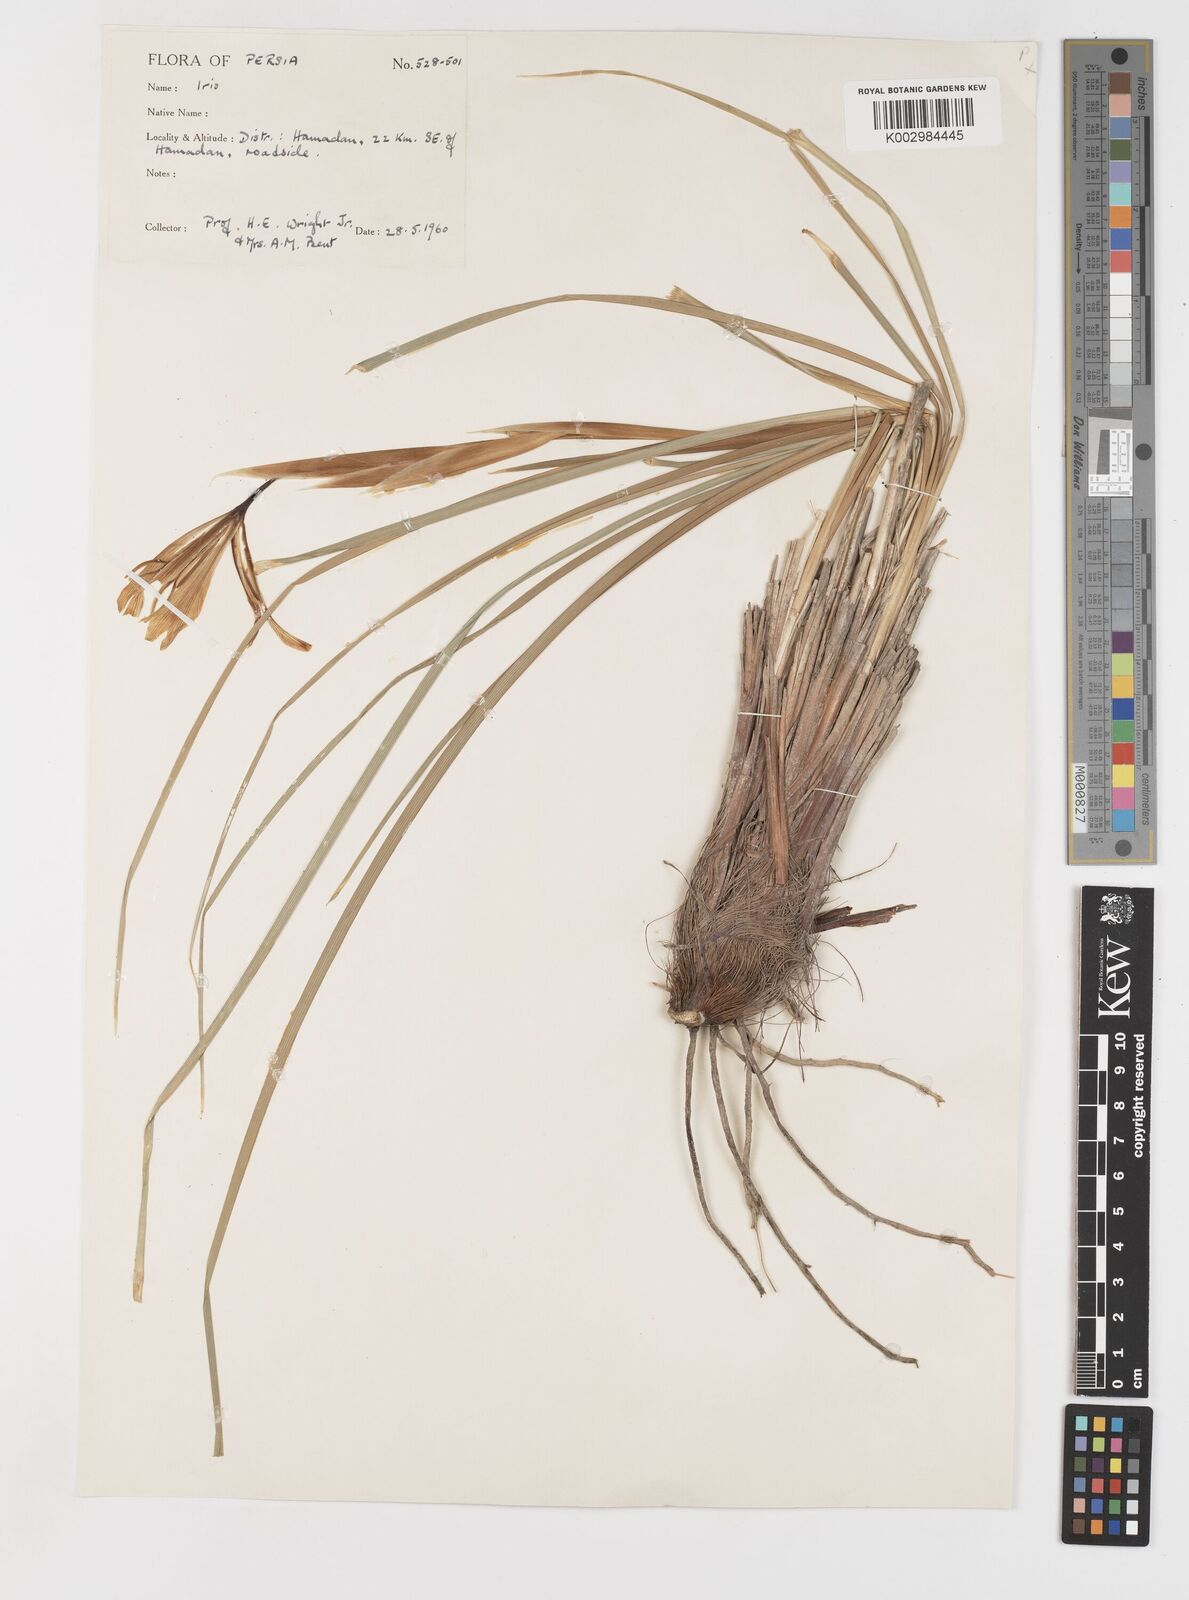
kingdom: Plantae
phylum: Tracheophyta
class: Liliopsida
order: Asparagales
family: Iridaceae
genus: Iris
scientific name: Iris songarica
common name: Songar iris
